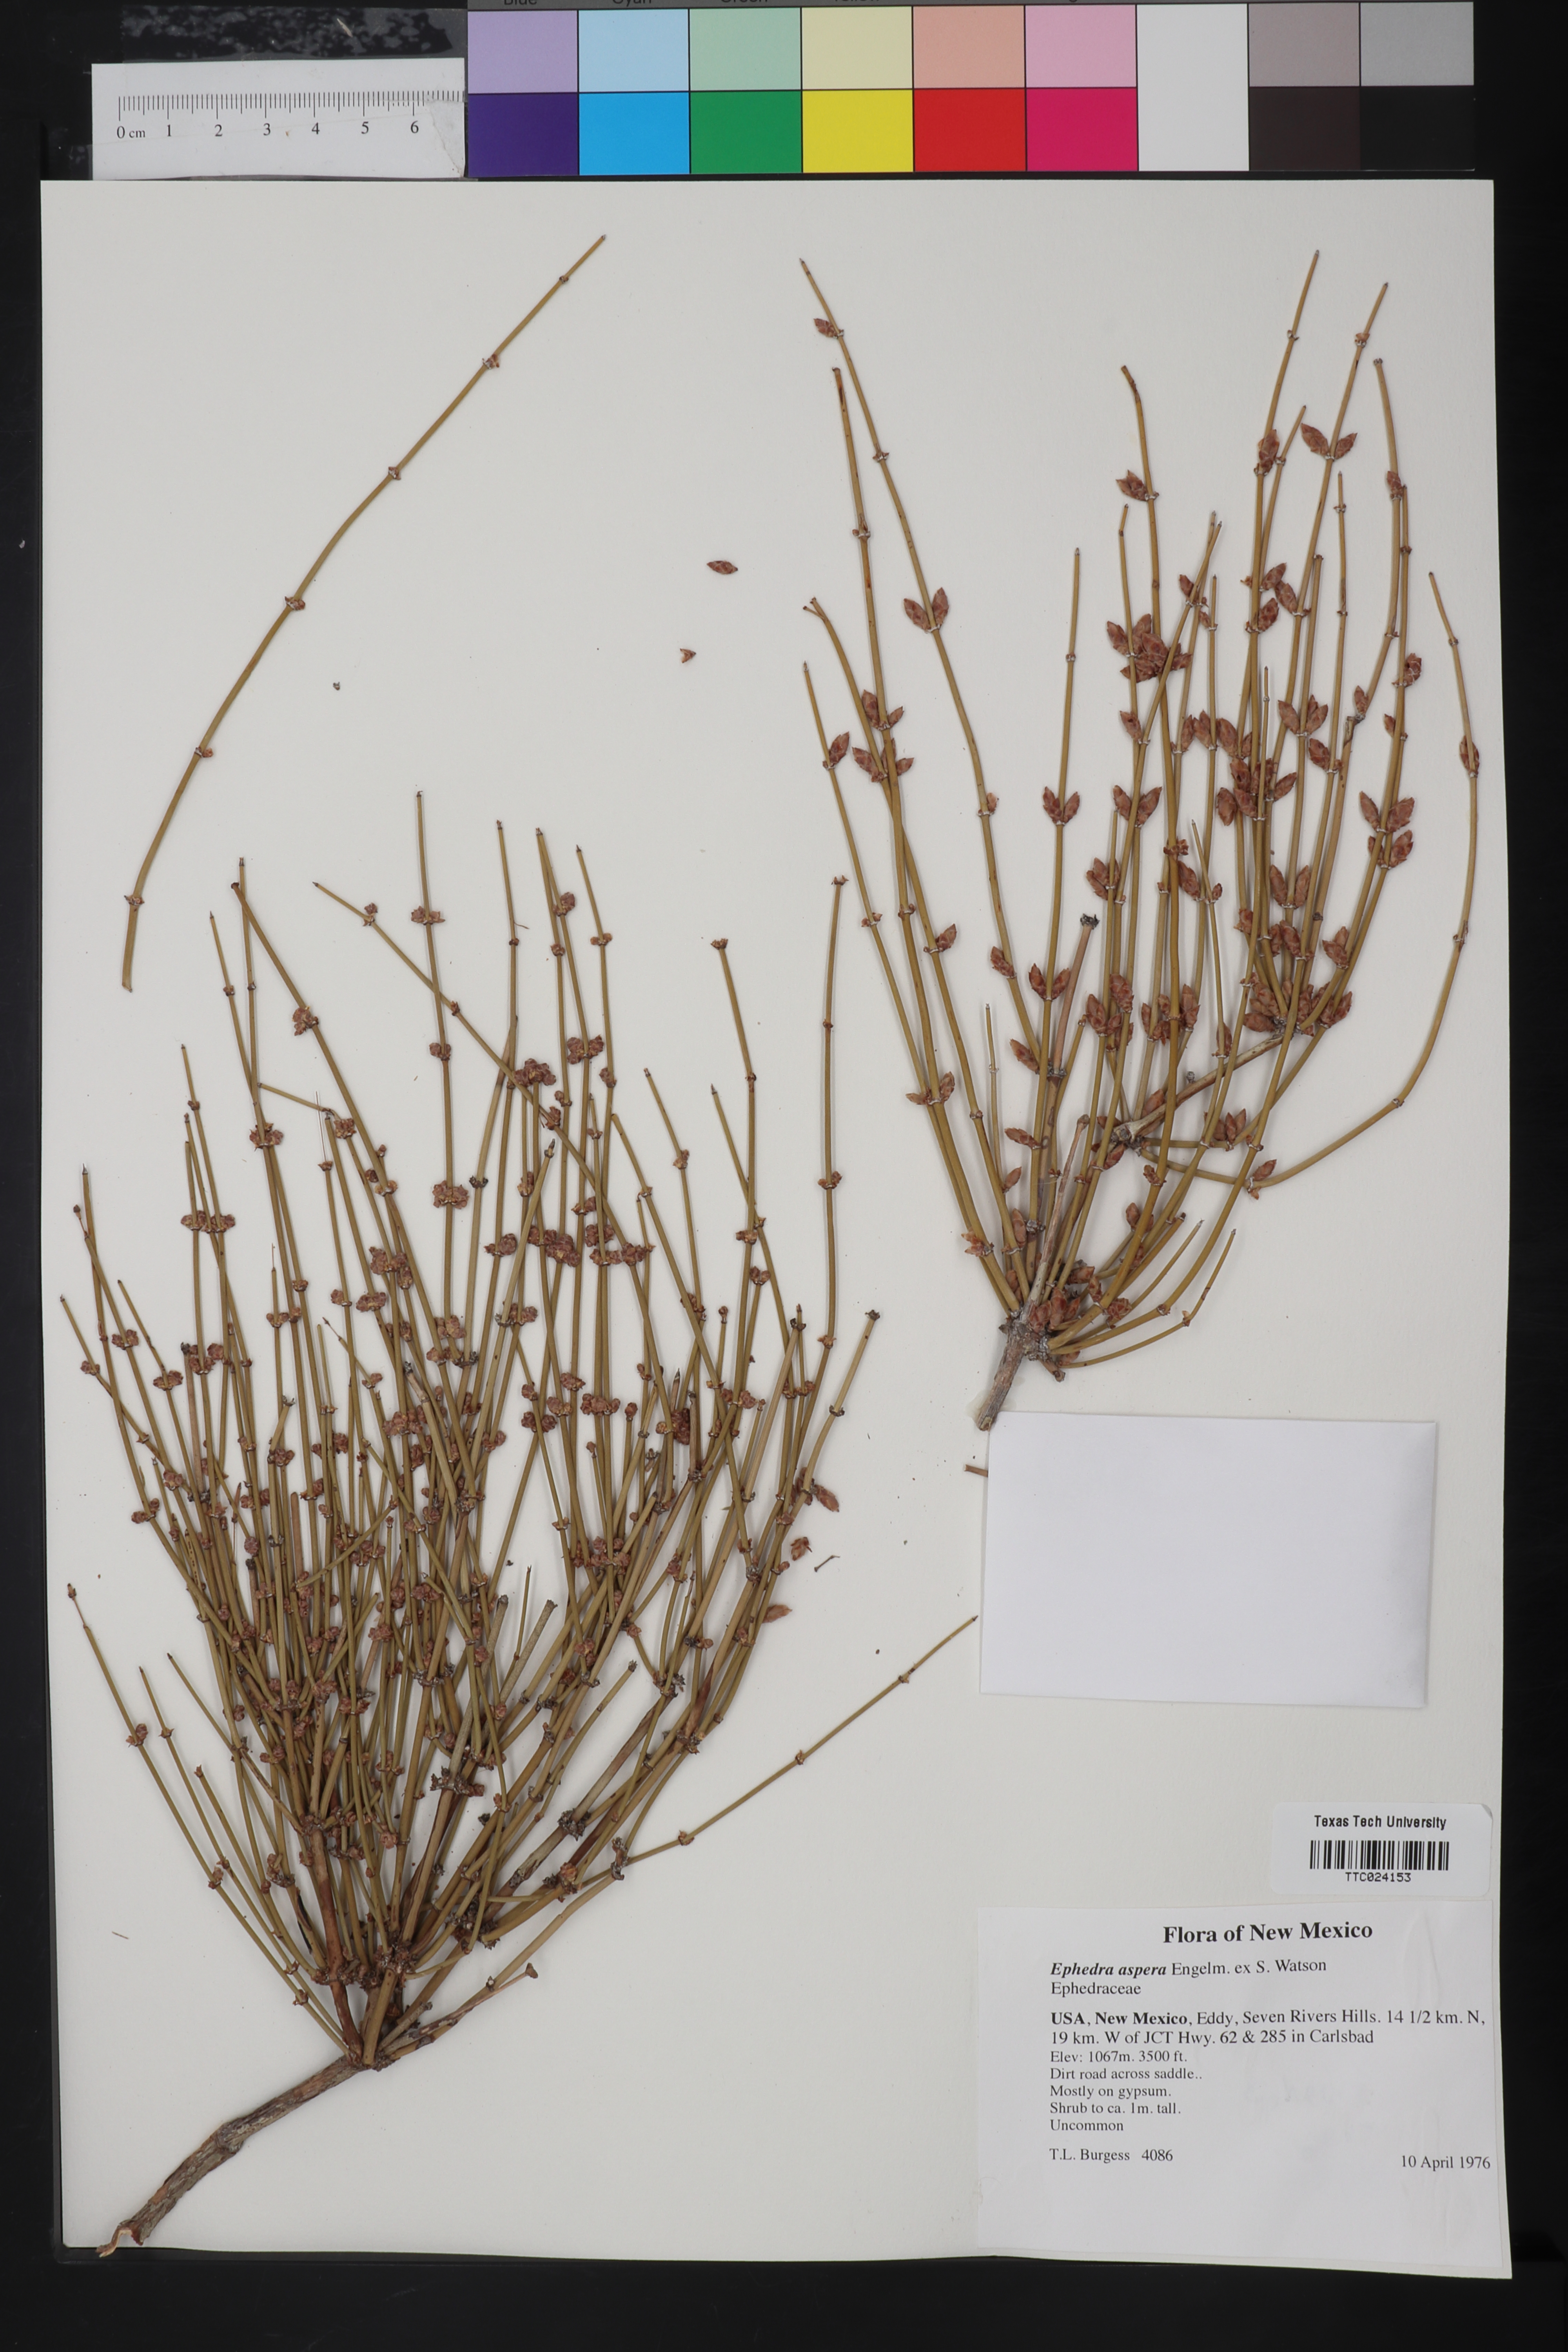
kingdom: Plantae
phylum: Tracheophyta
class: Gnetopsida
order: Ephedrales
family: Ephedraceae
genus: Ephedra
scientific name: Ephedra aspera
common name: Boundary ephedra
